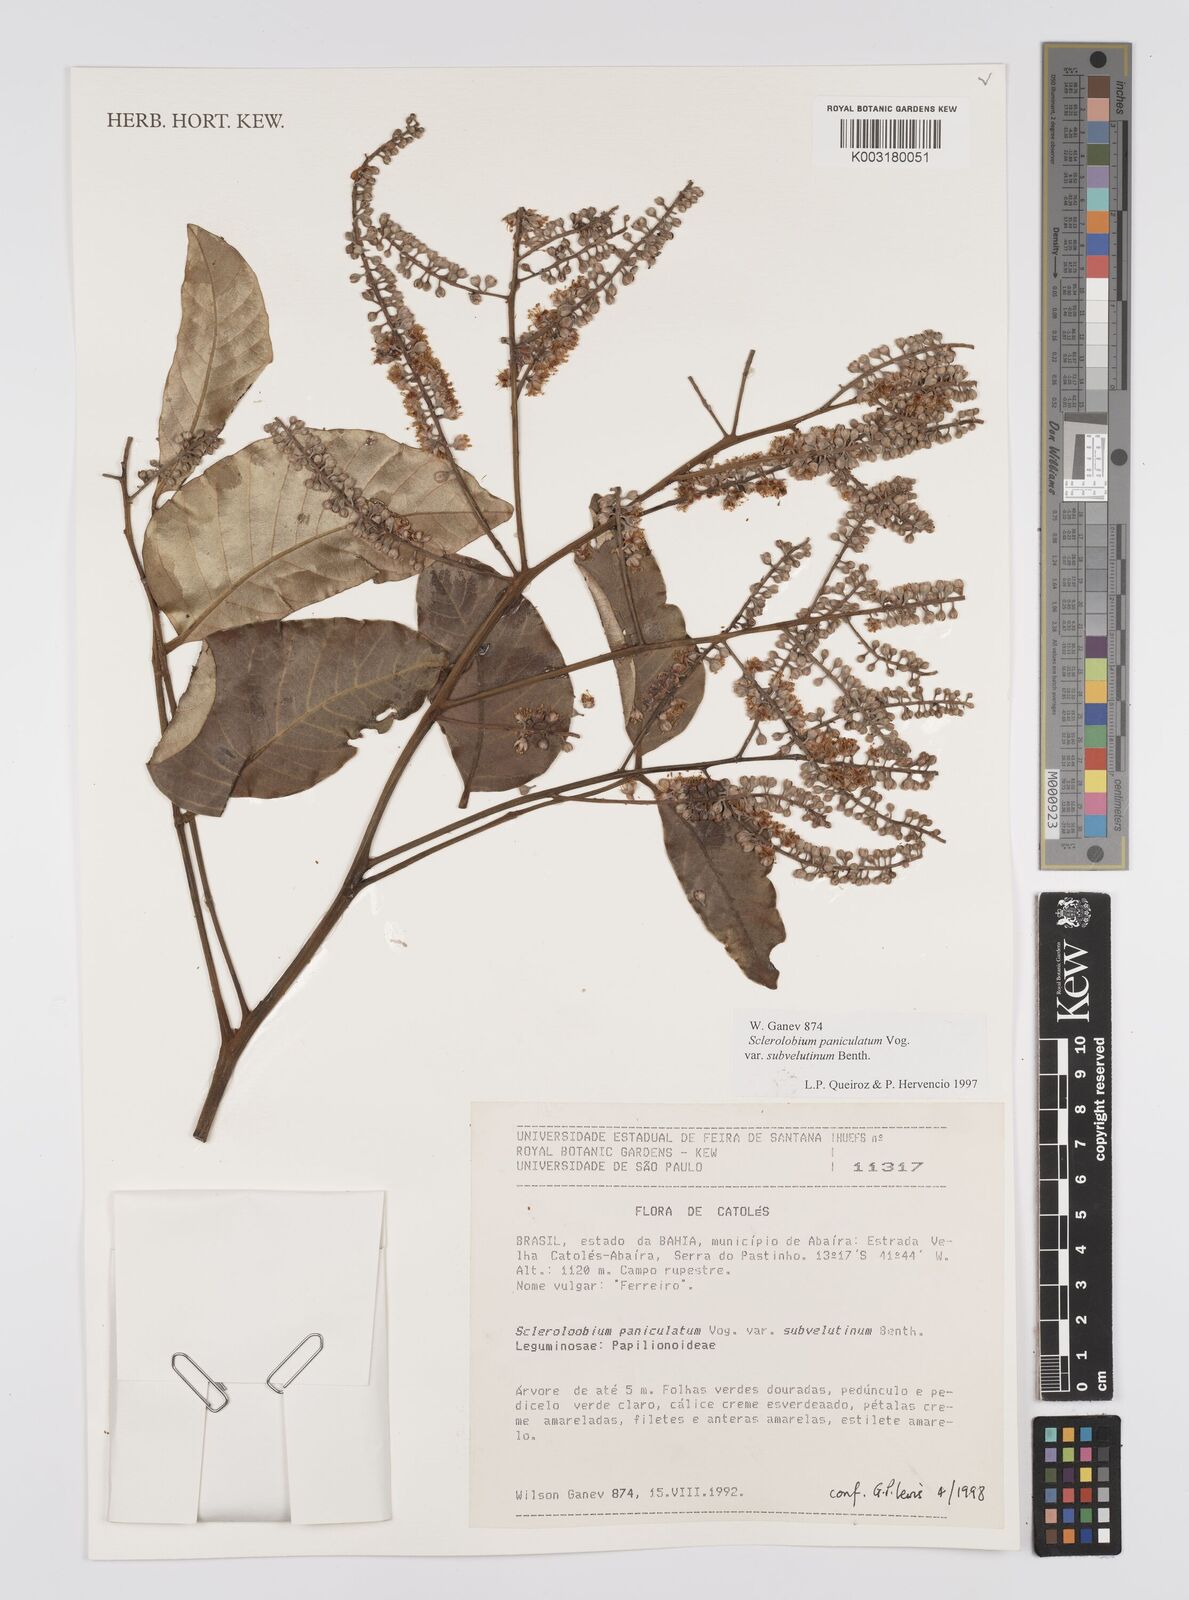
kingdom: Plantae
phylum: Tracheophyta
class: Magnoliopsida
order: Fabales
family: Fabaceae
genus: Tachigali
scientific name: Tachigali subvelutina
